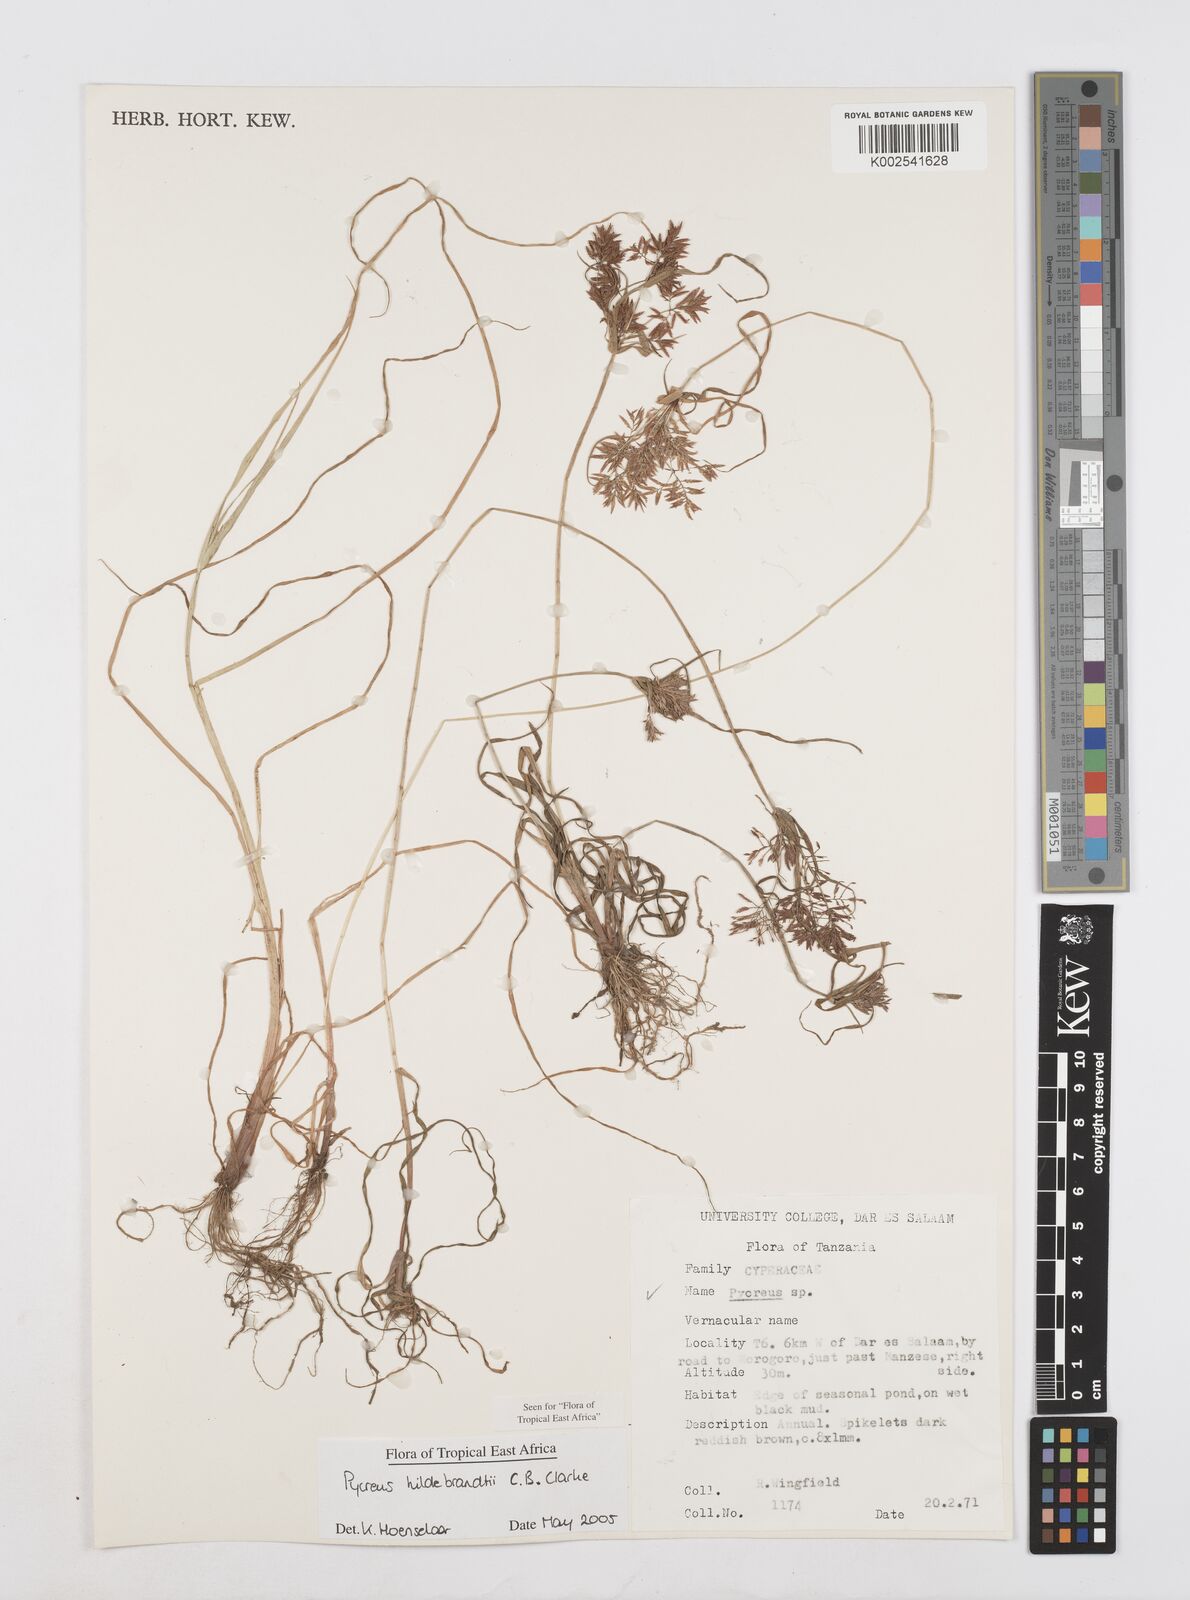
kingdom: Plantae
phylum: Tracheophyta
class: Liliopsida
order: Poales
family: Cyperaceae
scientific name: Cyperaceae
